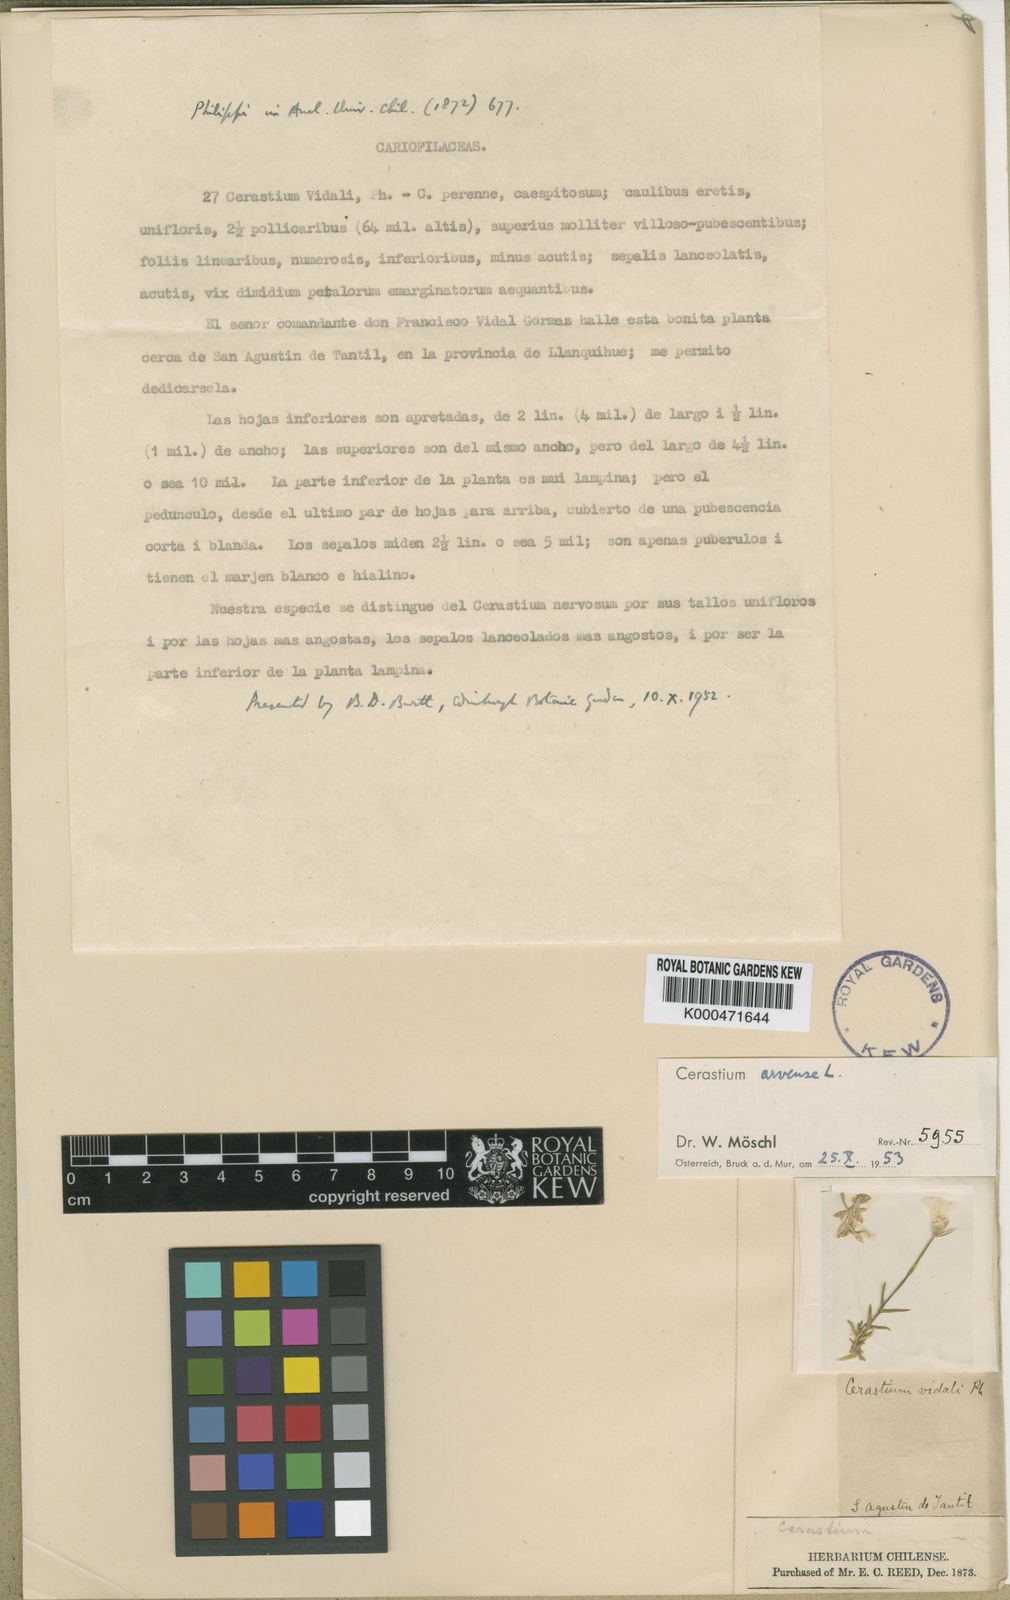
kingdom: Plantae
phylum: Tracheophyta
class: Magnoliopsida
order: Caryophyllales
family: Caryophyllaceae
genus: Cerastium
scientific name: Cerastium arvense
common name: Field mouse-ear
